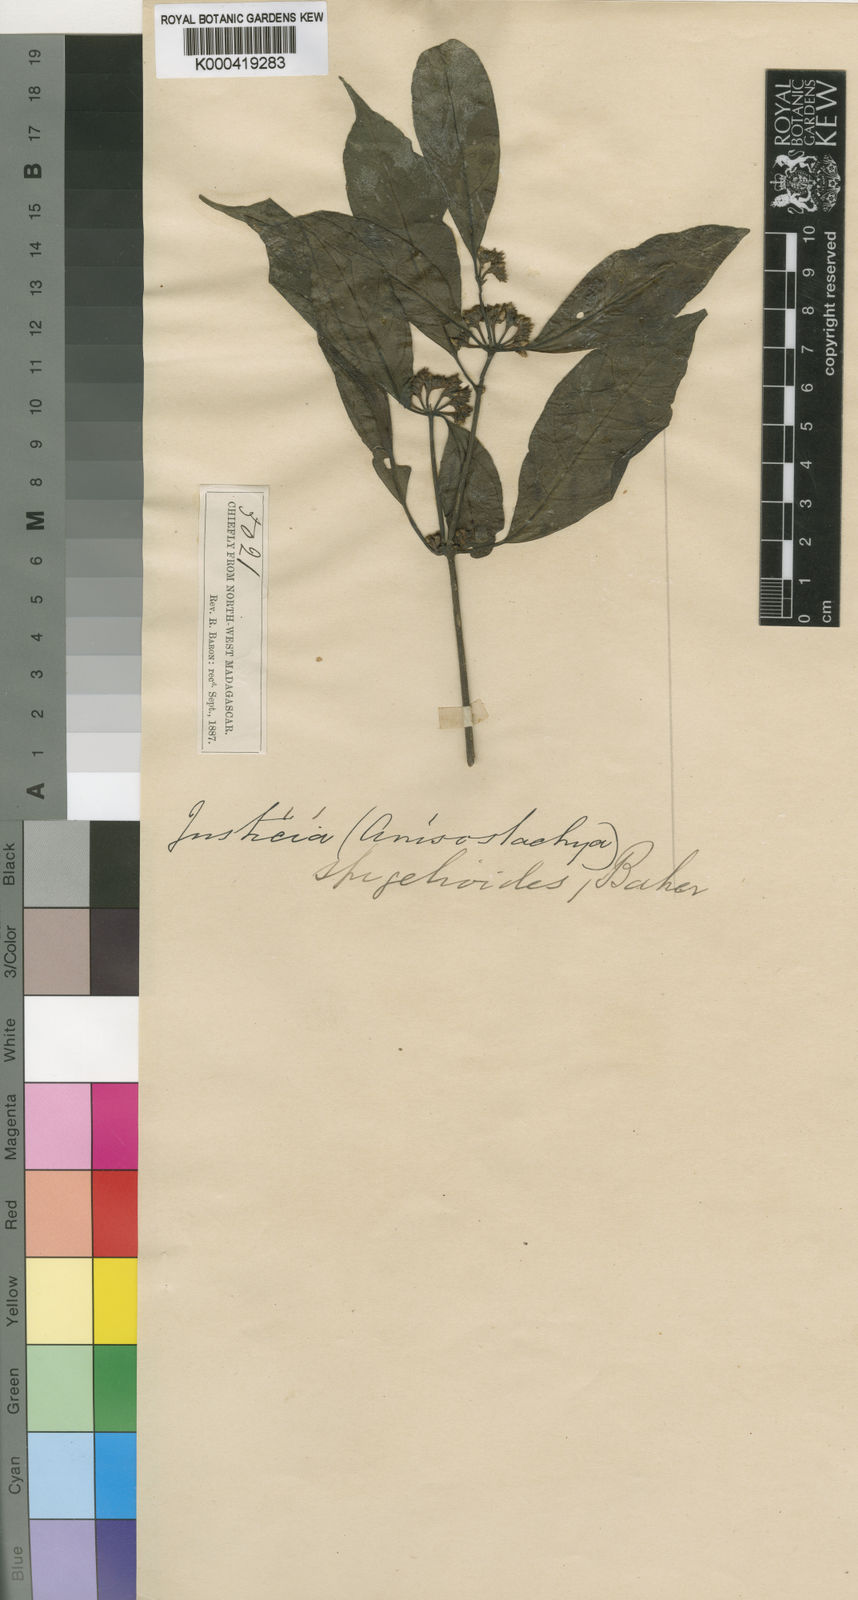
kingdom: Plantae
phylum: Tracheophyta
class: Magnoliopsida
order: Lamiales
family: Acanthaceae
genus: Justicia
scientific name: Justicia
